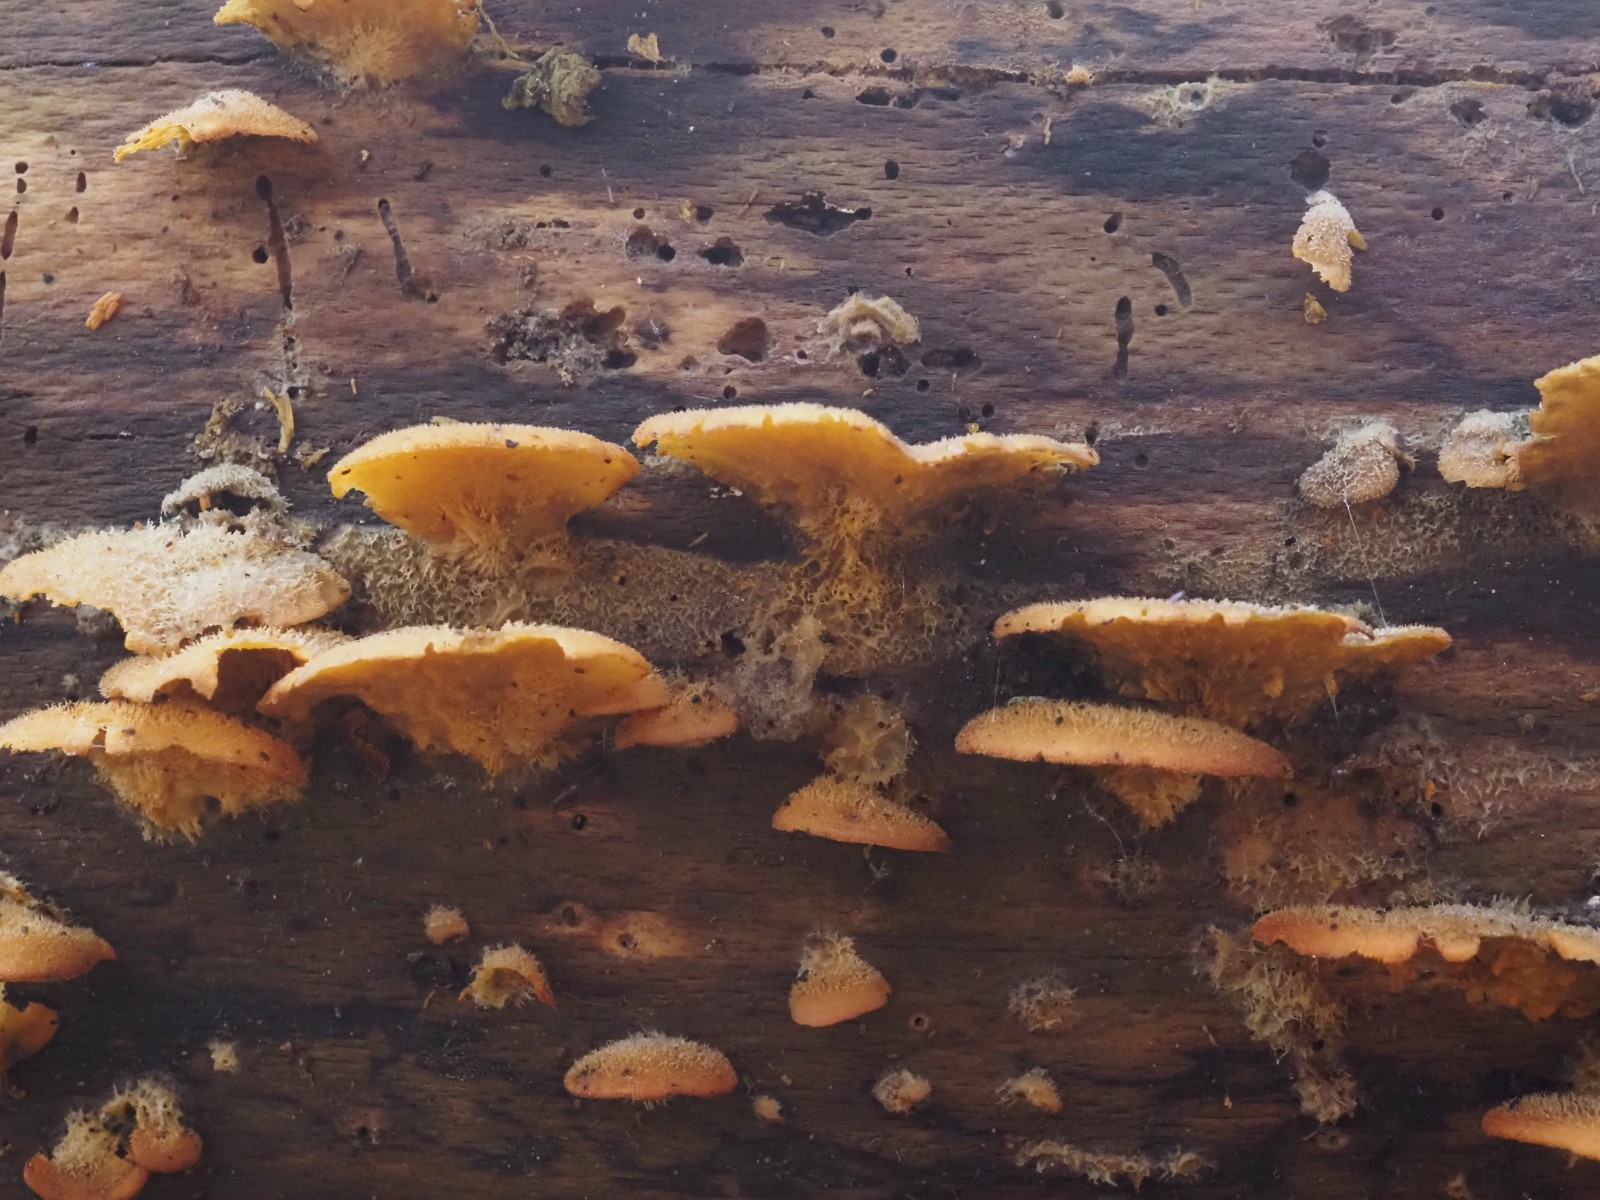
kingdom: Fungi
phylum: Basidiomycota
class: Agaricomycetes
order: Agaricales
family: Phyllotopsidaceae
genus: Phyllotopsis
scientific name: Phyllotopsis nidulans
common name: okkerblad
